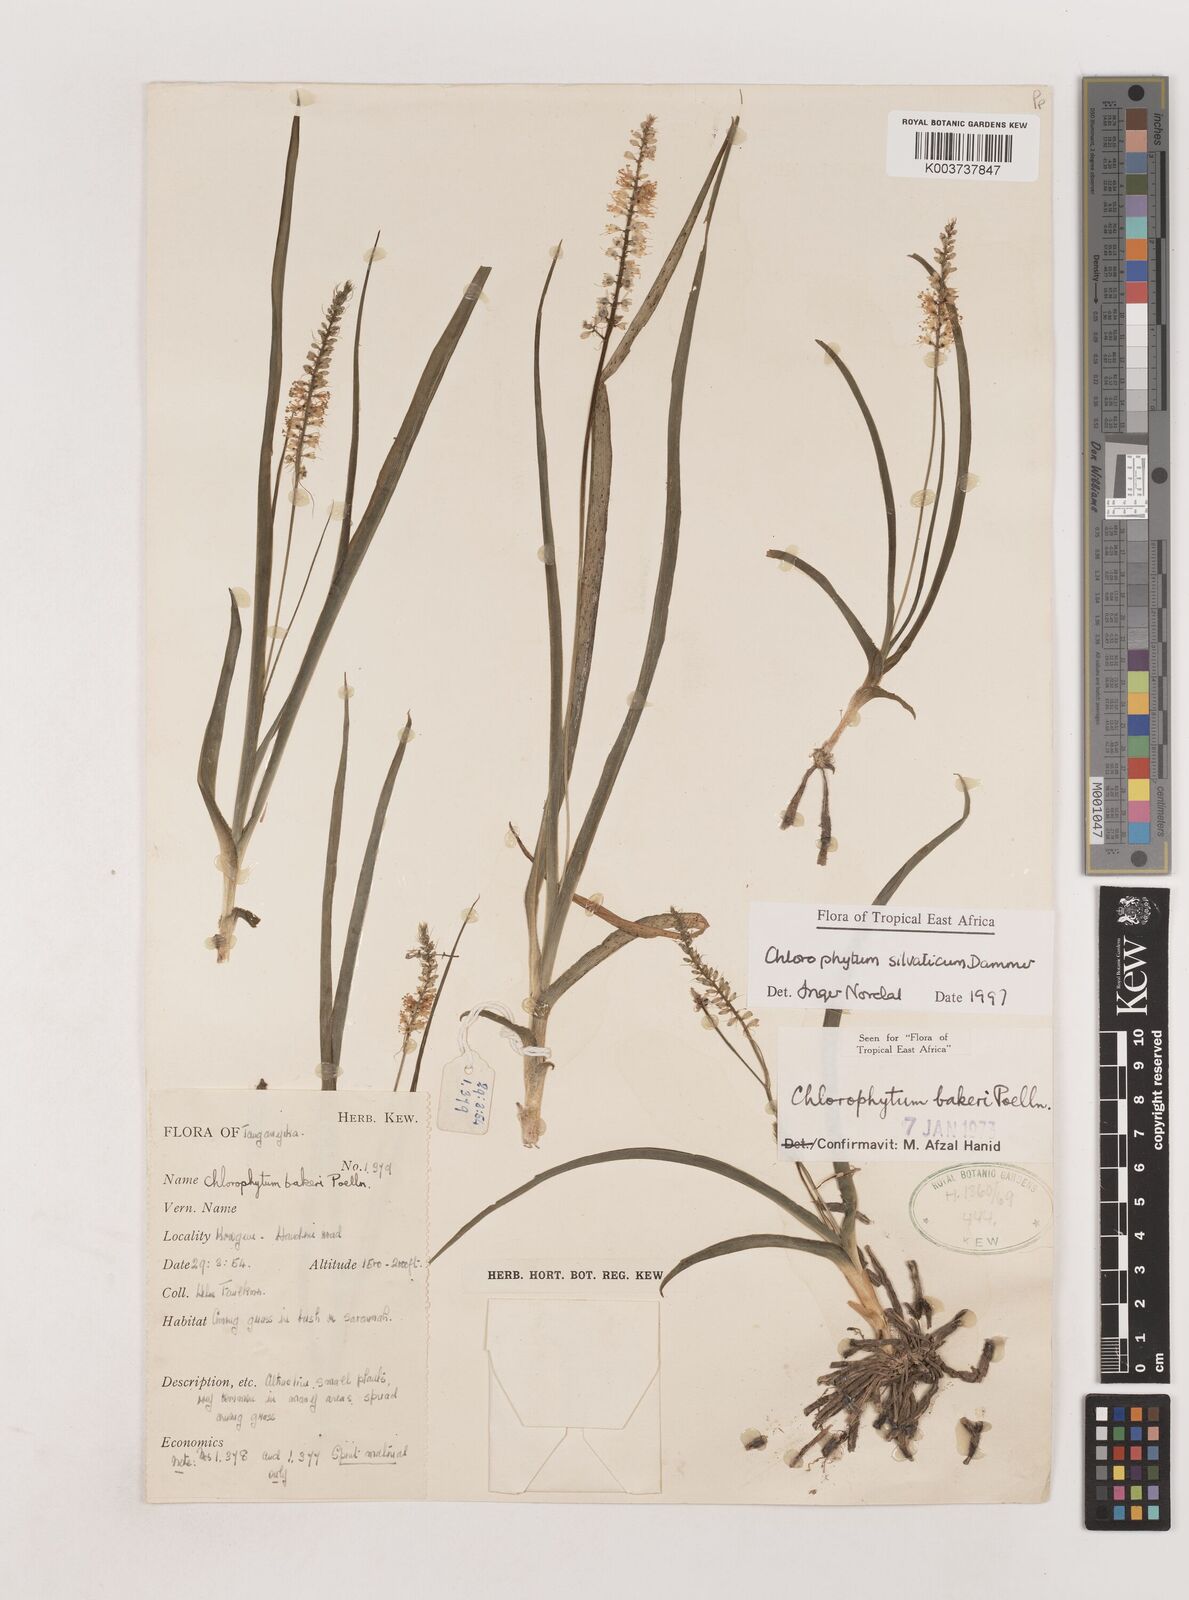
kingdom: Plantae
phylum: Tracheophyta
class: Liliopsida
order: Asparagales
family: Asparagaceae
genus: Chlorophytum
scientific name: Chlorophytum africanum
